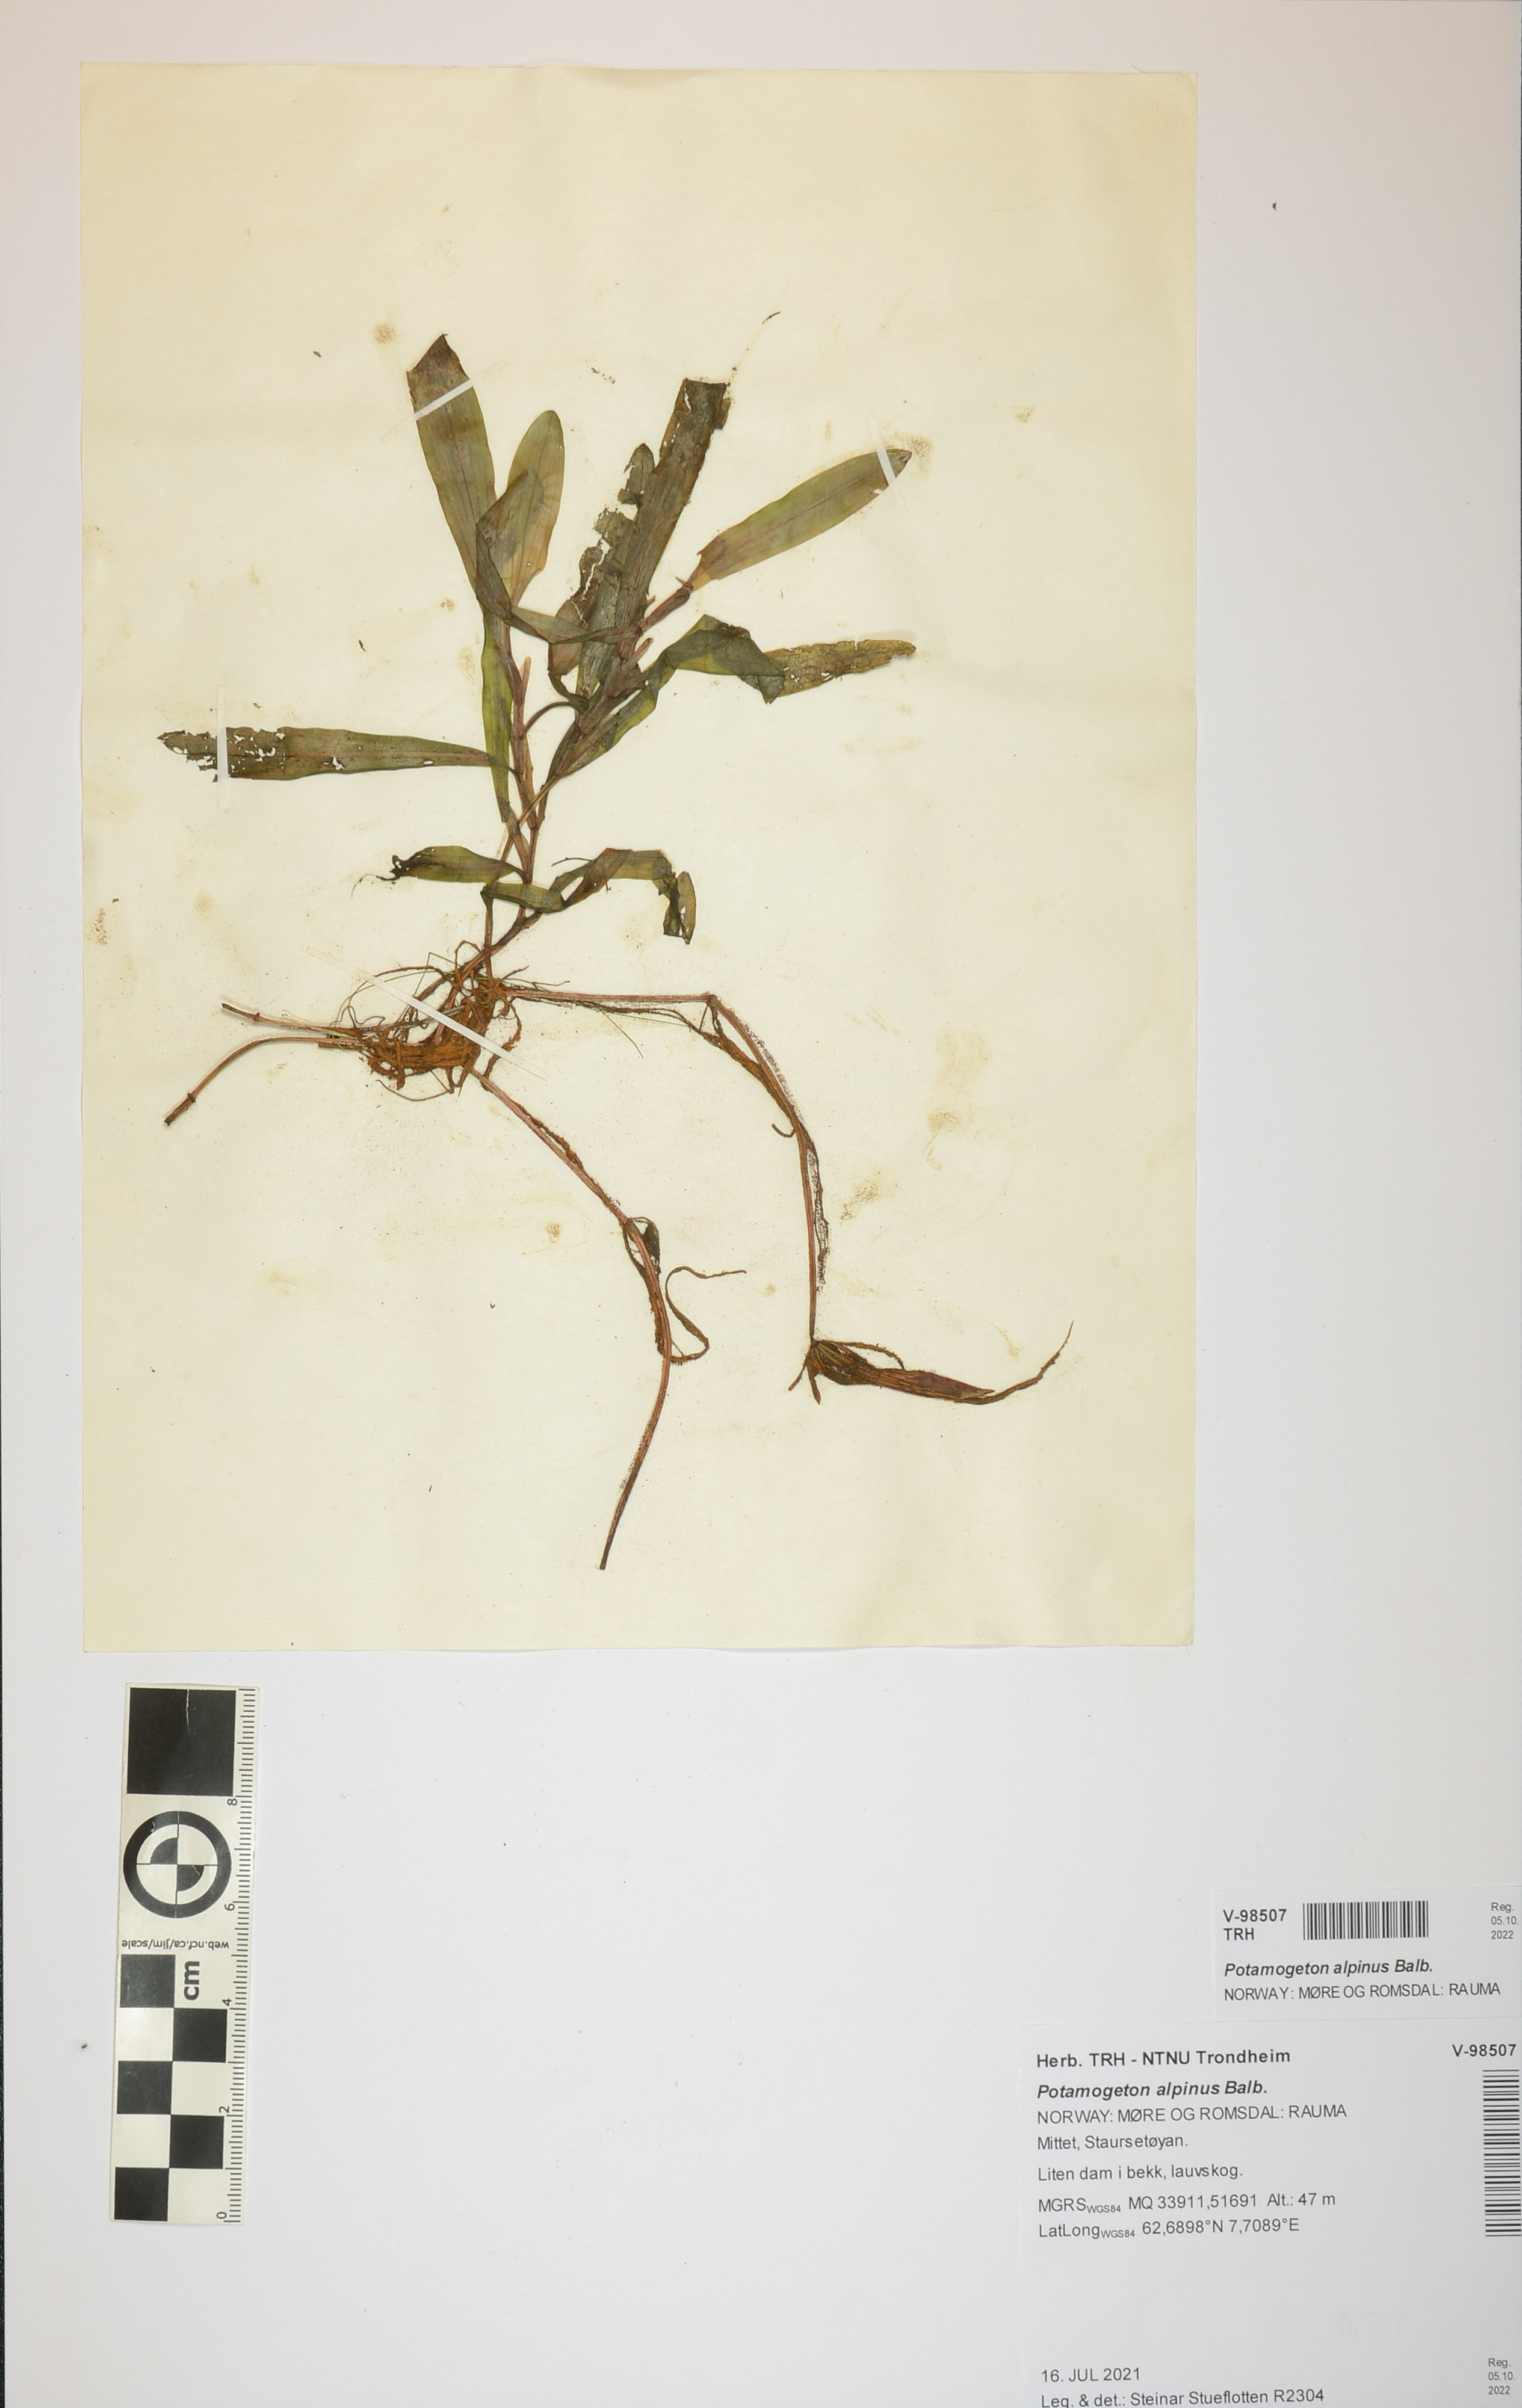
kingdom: Plantae
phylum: Tracheophyta
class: Liliopsida
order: Alismatales
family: Potamogetonaceae
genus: Potamogeton
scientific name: Potamogeton alpinus
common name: Red pondweed
